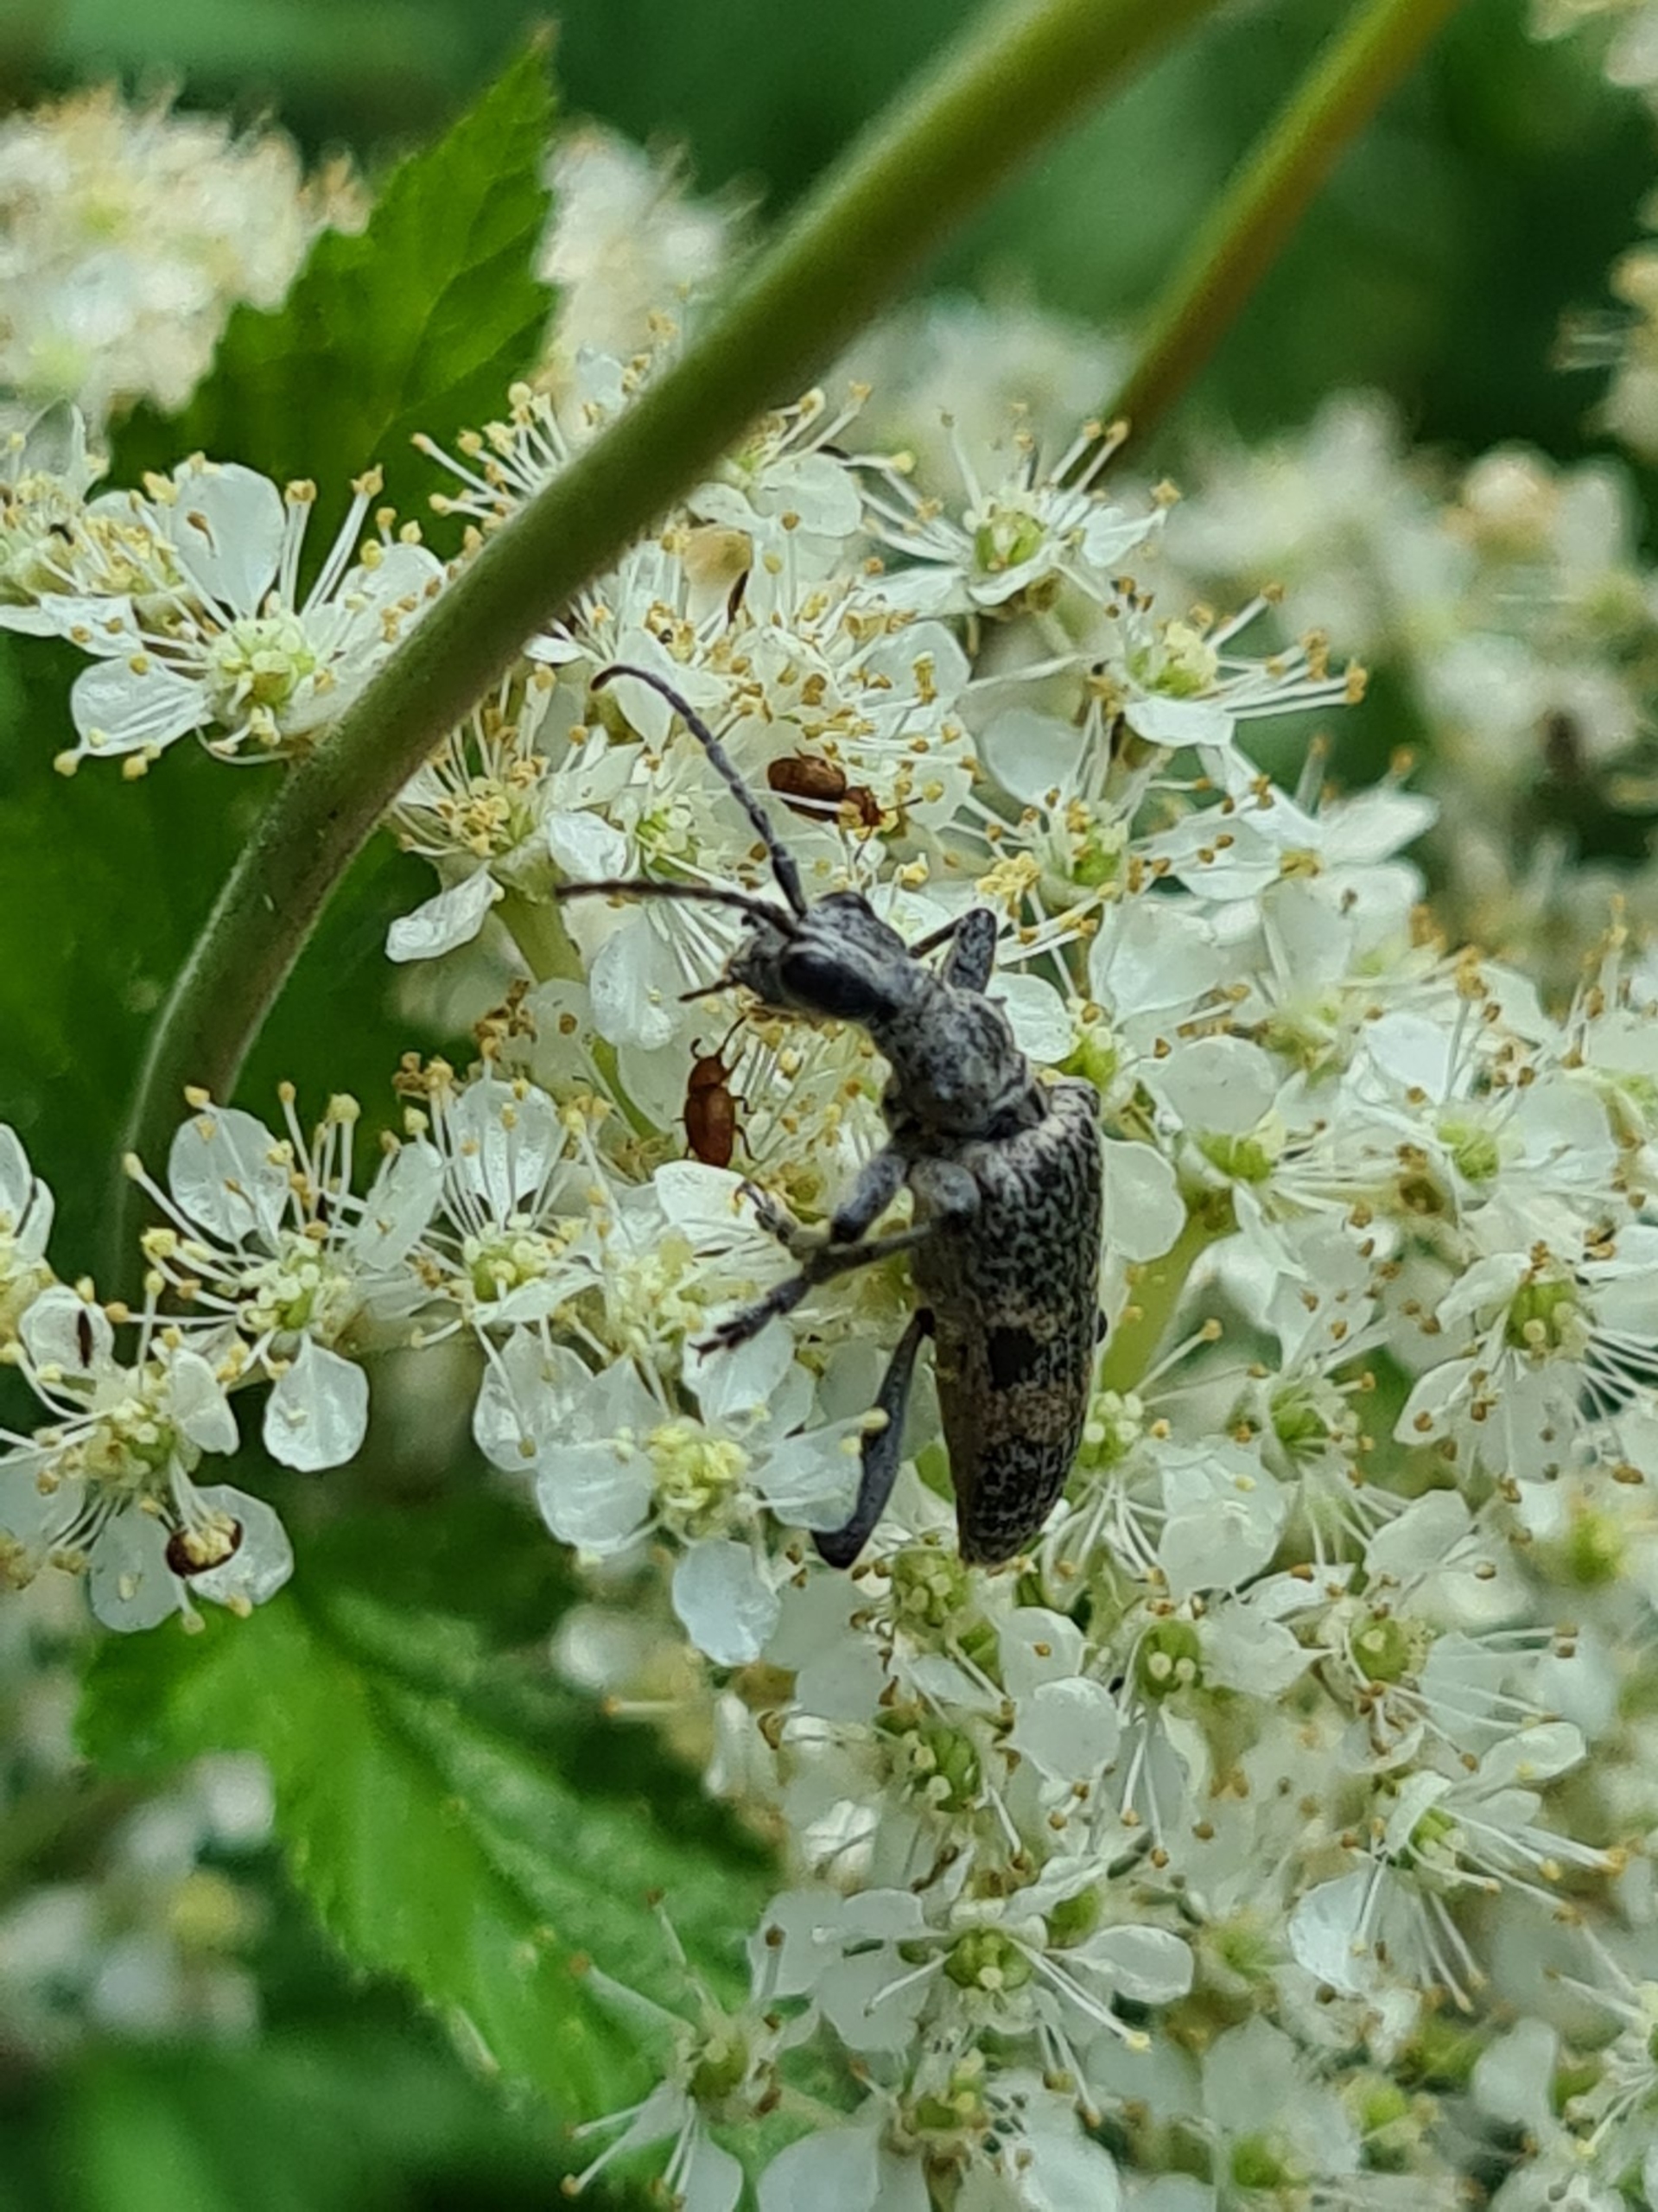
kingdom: Animalia
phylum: Arthropoda
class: Insecta
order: Coleoptera
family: Cerambycidae
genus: Rhagium
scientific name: Rhagium mordax
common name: Blankplettet tandbuk
